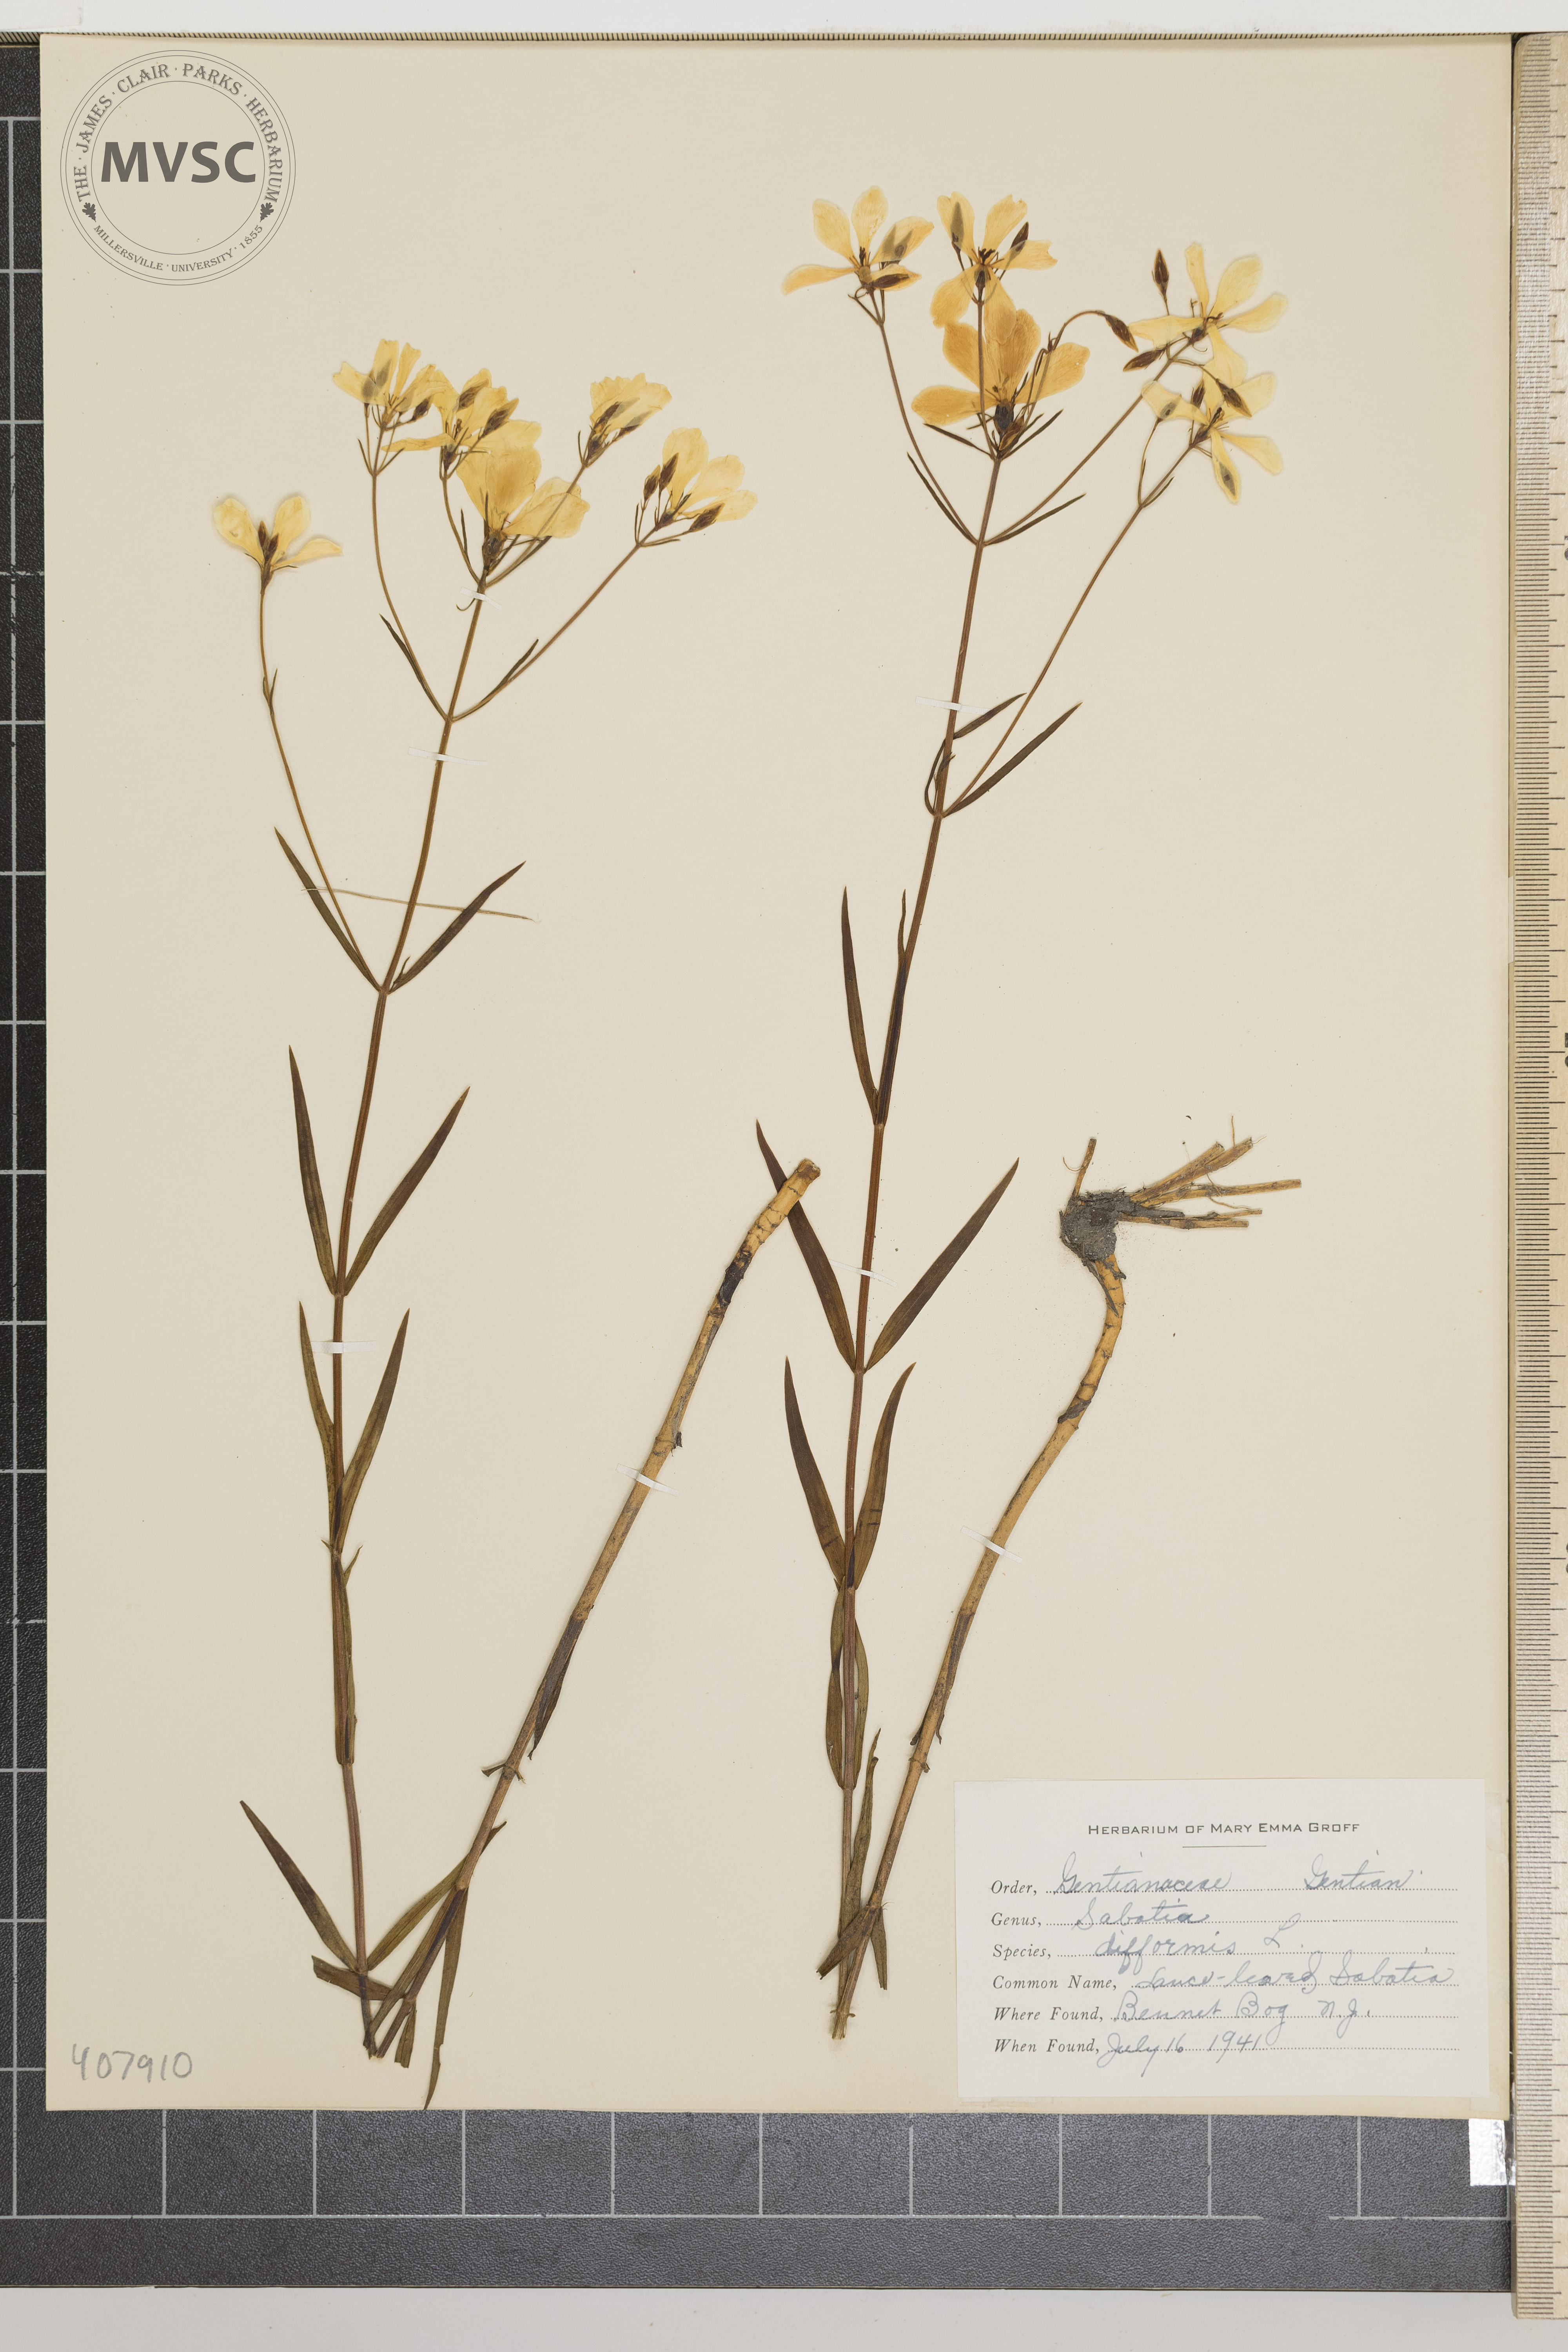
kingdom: Plantae
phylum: Tracheophyta
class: Magnoliopsida
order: Gentianales
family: Gentianaceae
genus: Sabatia
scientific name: Sabatia difformis
